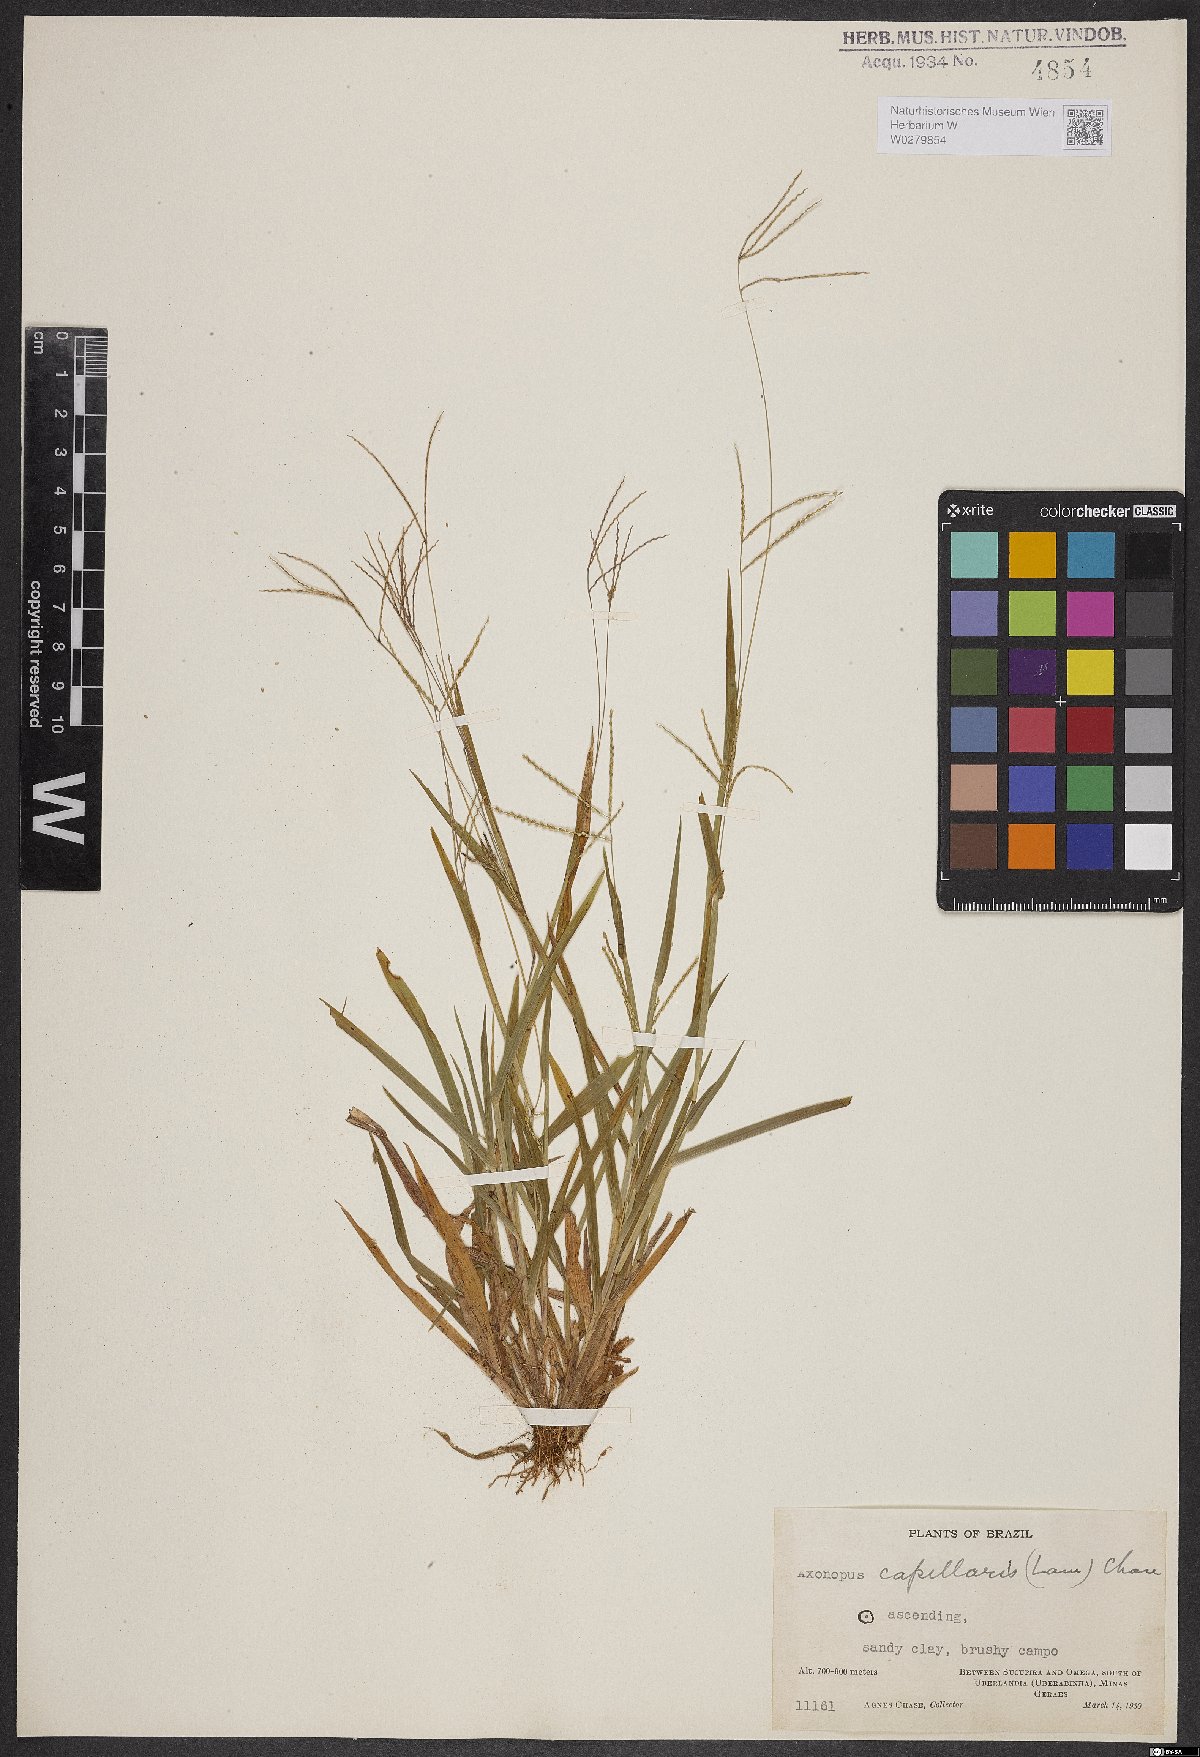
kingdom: Plantae
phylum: Tracheophyta
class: Liliopsida
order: Poales
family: Poaceae
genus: Axonopus
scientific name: Axonopus capillaris
